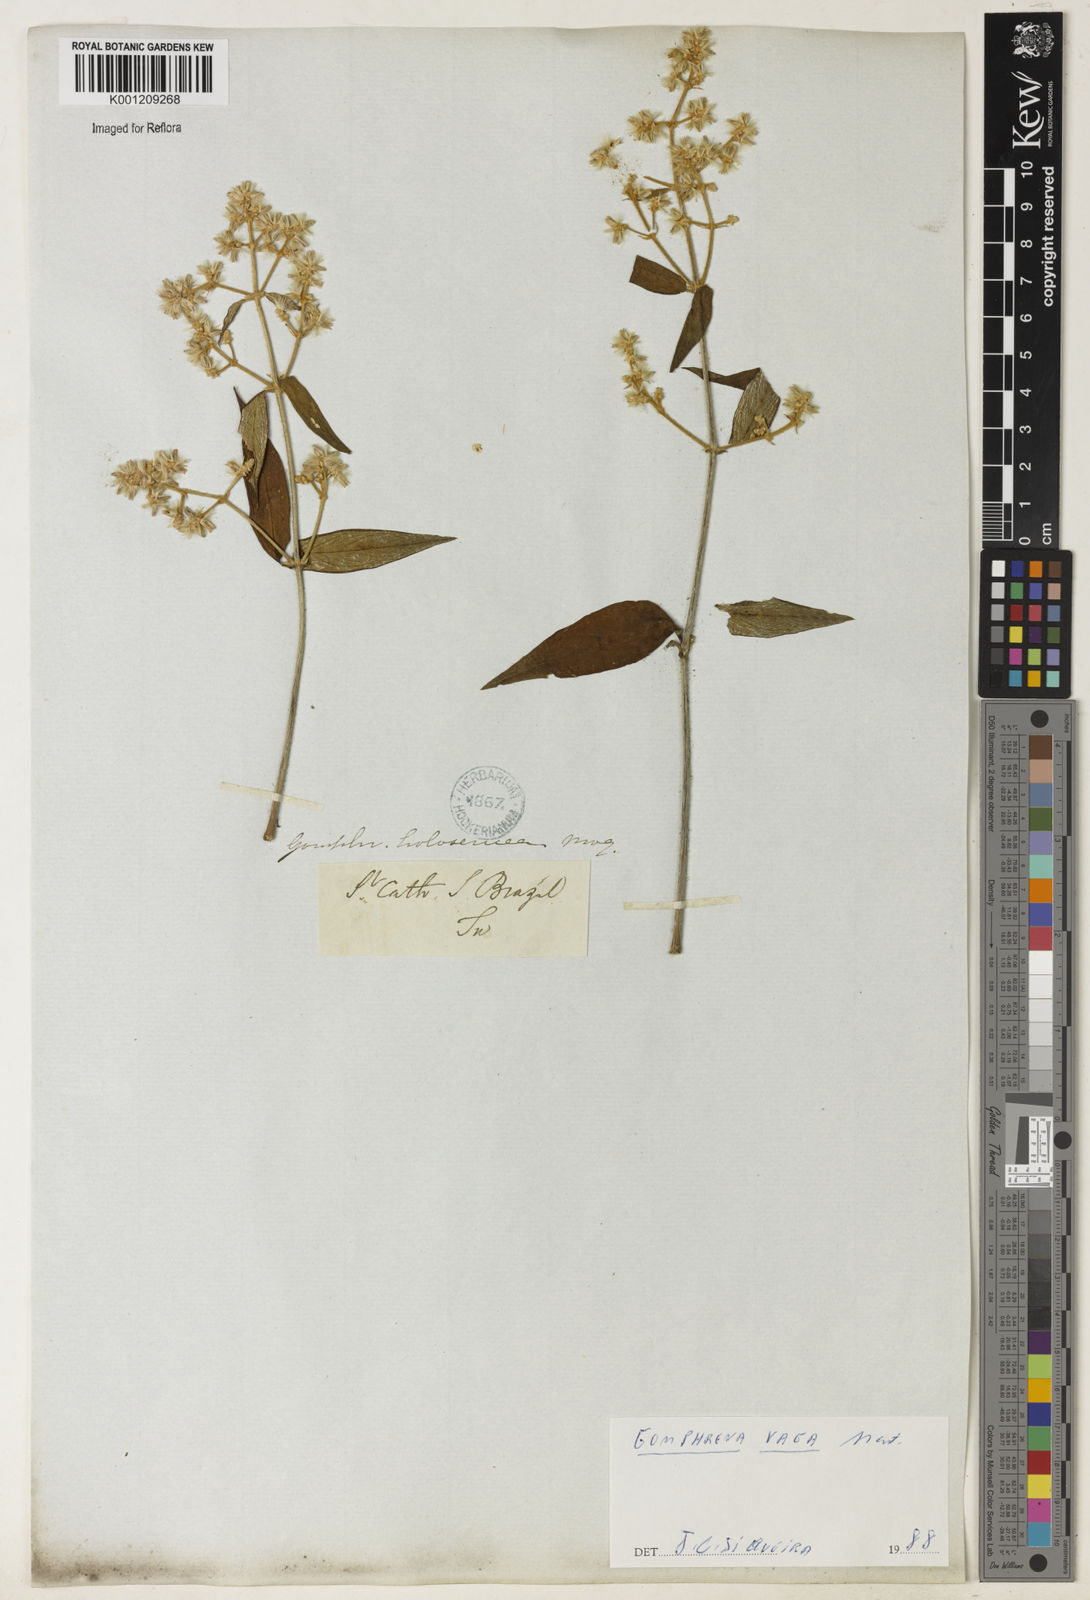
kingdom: Plantae
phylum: Tracheophyta
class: Magnoliopsida
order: Caryophyllales
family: Amaranthaceae
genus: Gomphrena
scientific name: Gomphrena vaga
